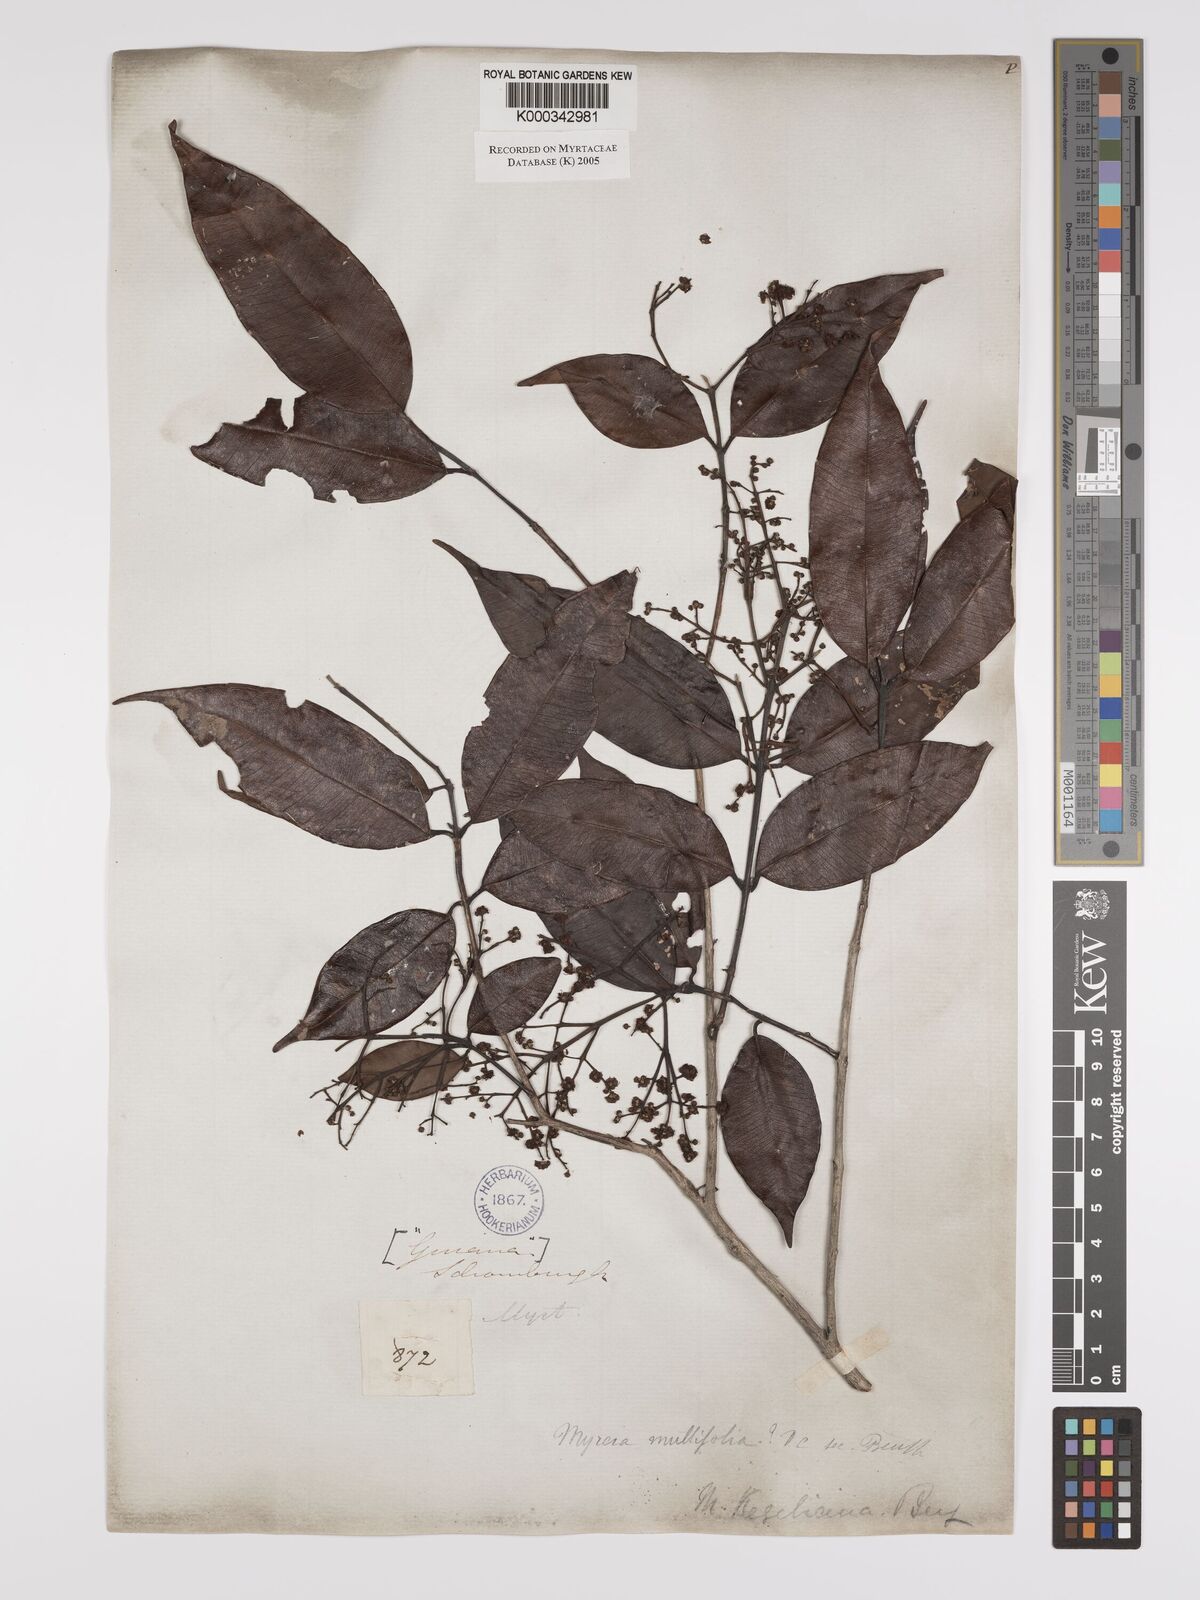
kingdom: Plantae
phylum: Tracheophyta
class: Magnoliopsida
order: Myrtales
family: Myrtaceae
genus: Myrcia
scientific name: Myrcia splendens
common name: Surinam cherry
